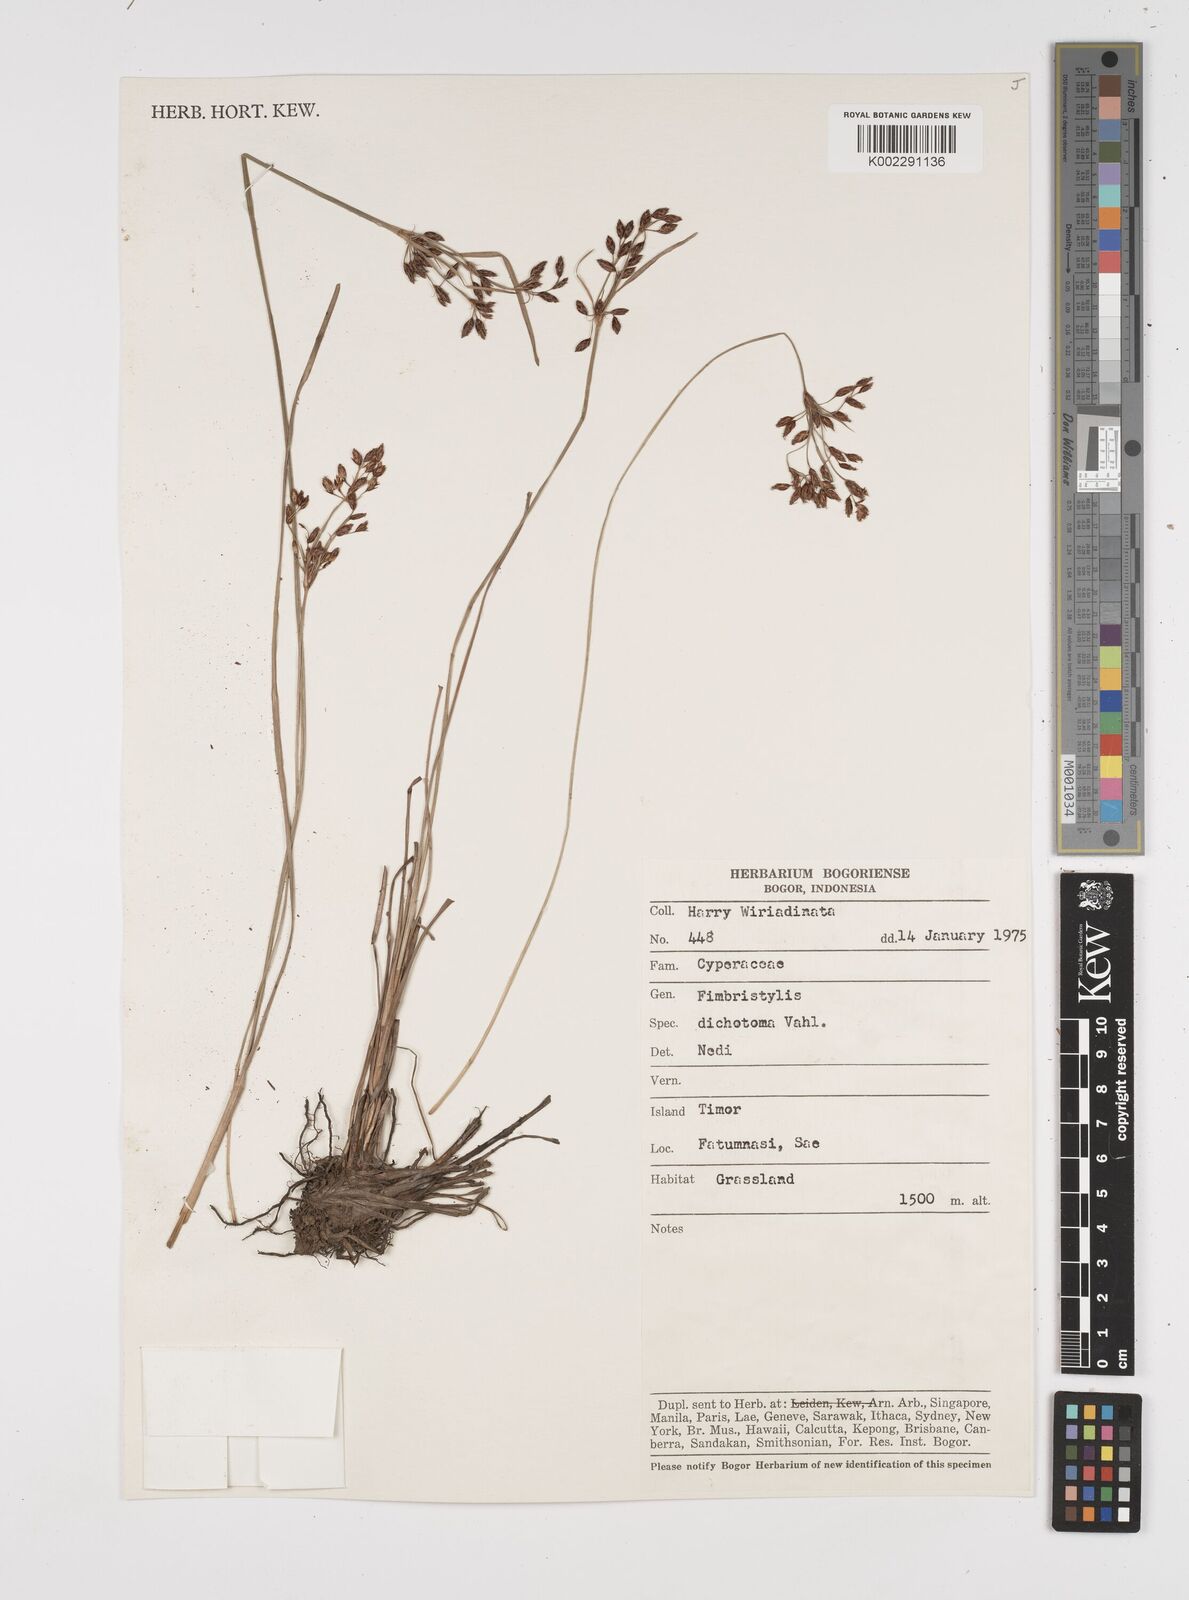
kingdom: Plantae
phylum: Tracheophyta
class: Liliopsida
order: Poales
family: Cyperaceae
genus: Fimbristylis
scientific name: Fimbristylis dichotoma
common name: Forked fimbry
